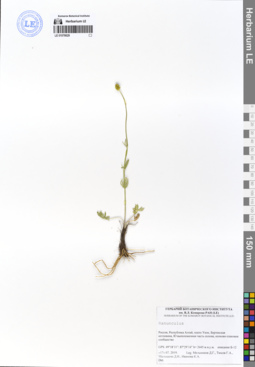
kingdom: Plantae
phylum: Tracheophyta
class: Magnoliopsida
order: Ranunculales
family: Ranunculaceae
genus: Ranunculus
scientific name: Ranunculus pedatifidus
